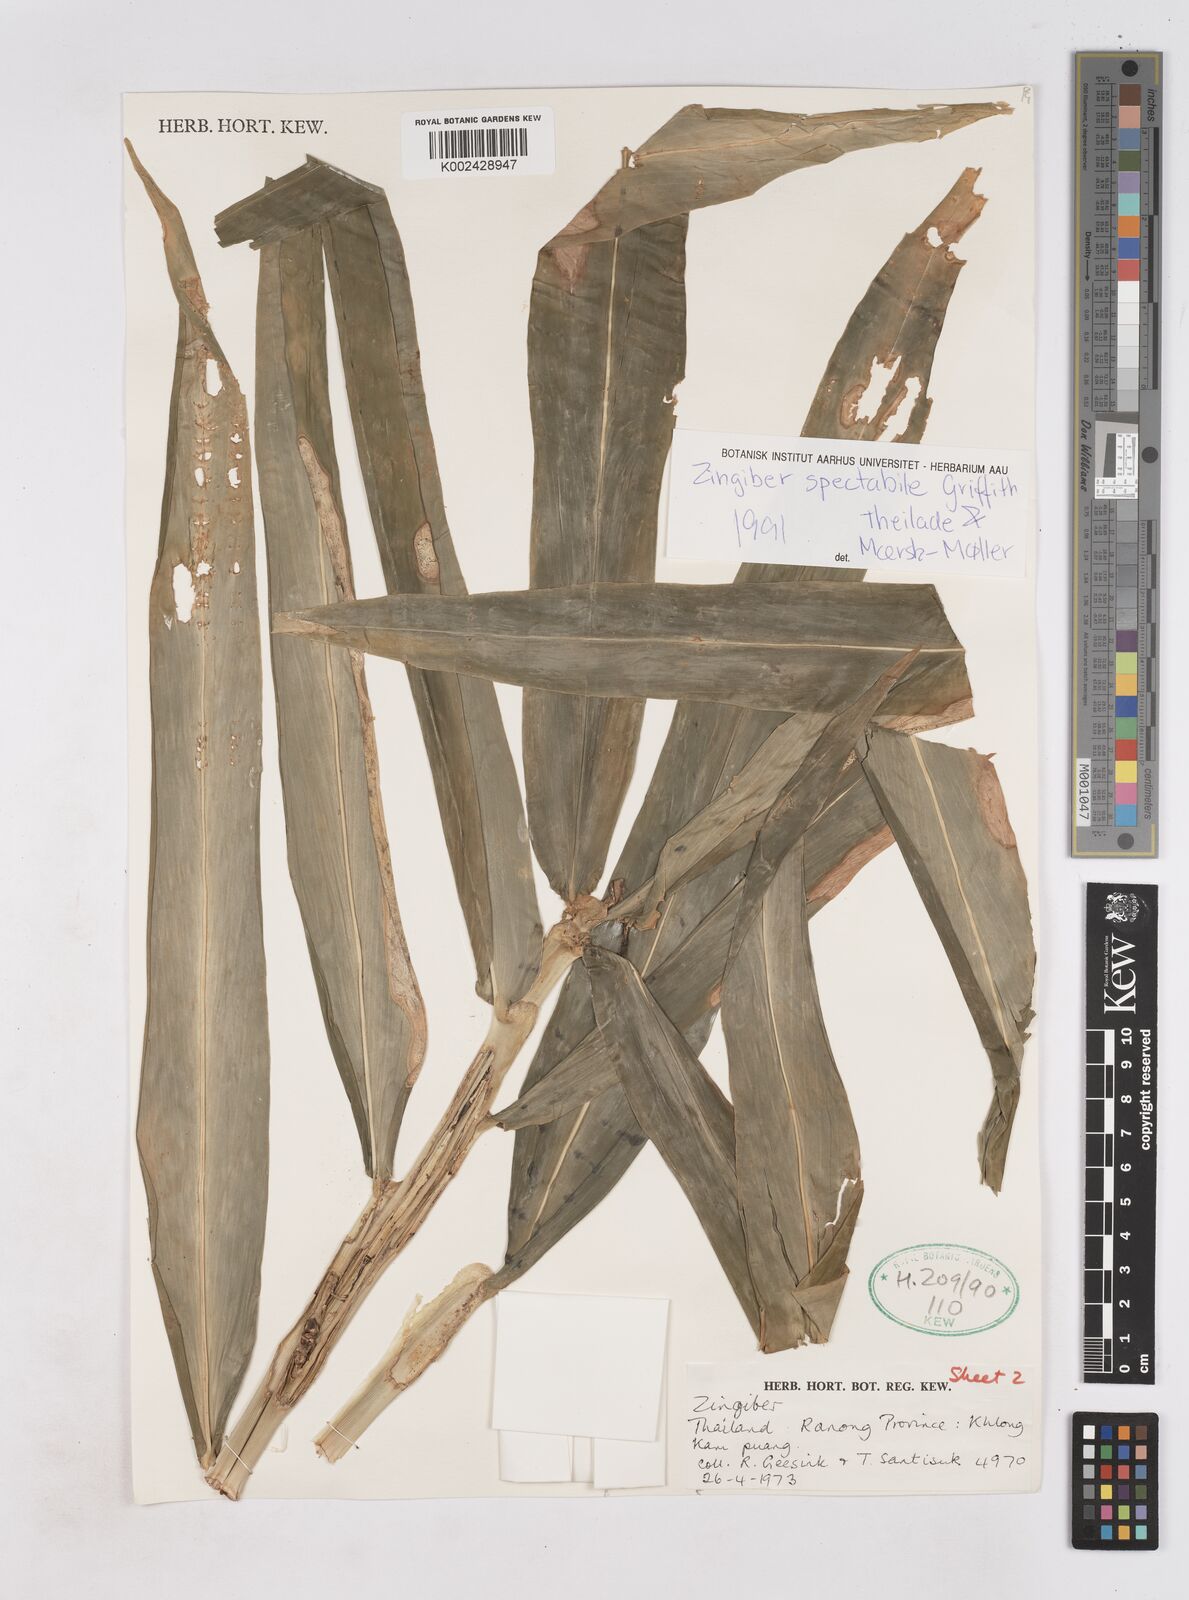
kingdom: Plantae
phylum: Tracheophyta
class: Liliopsida
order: Zingiberales
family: Zingiberaceae
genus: Zingiber
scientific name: Zingiber spectabile
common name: Beehive ginger
